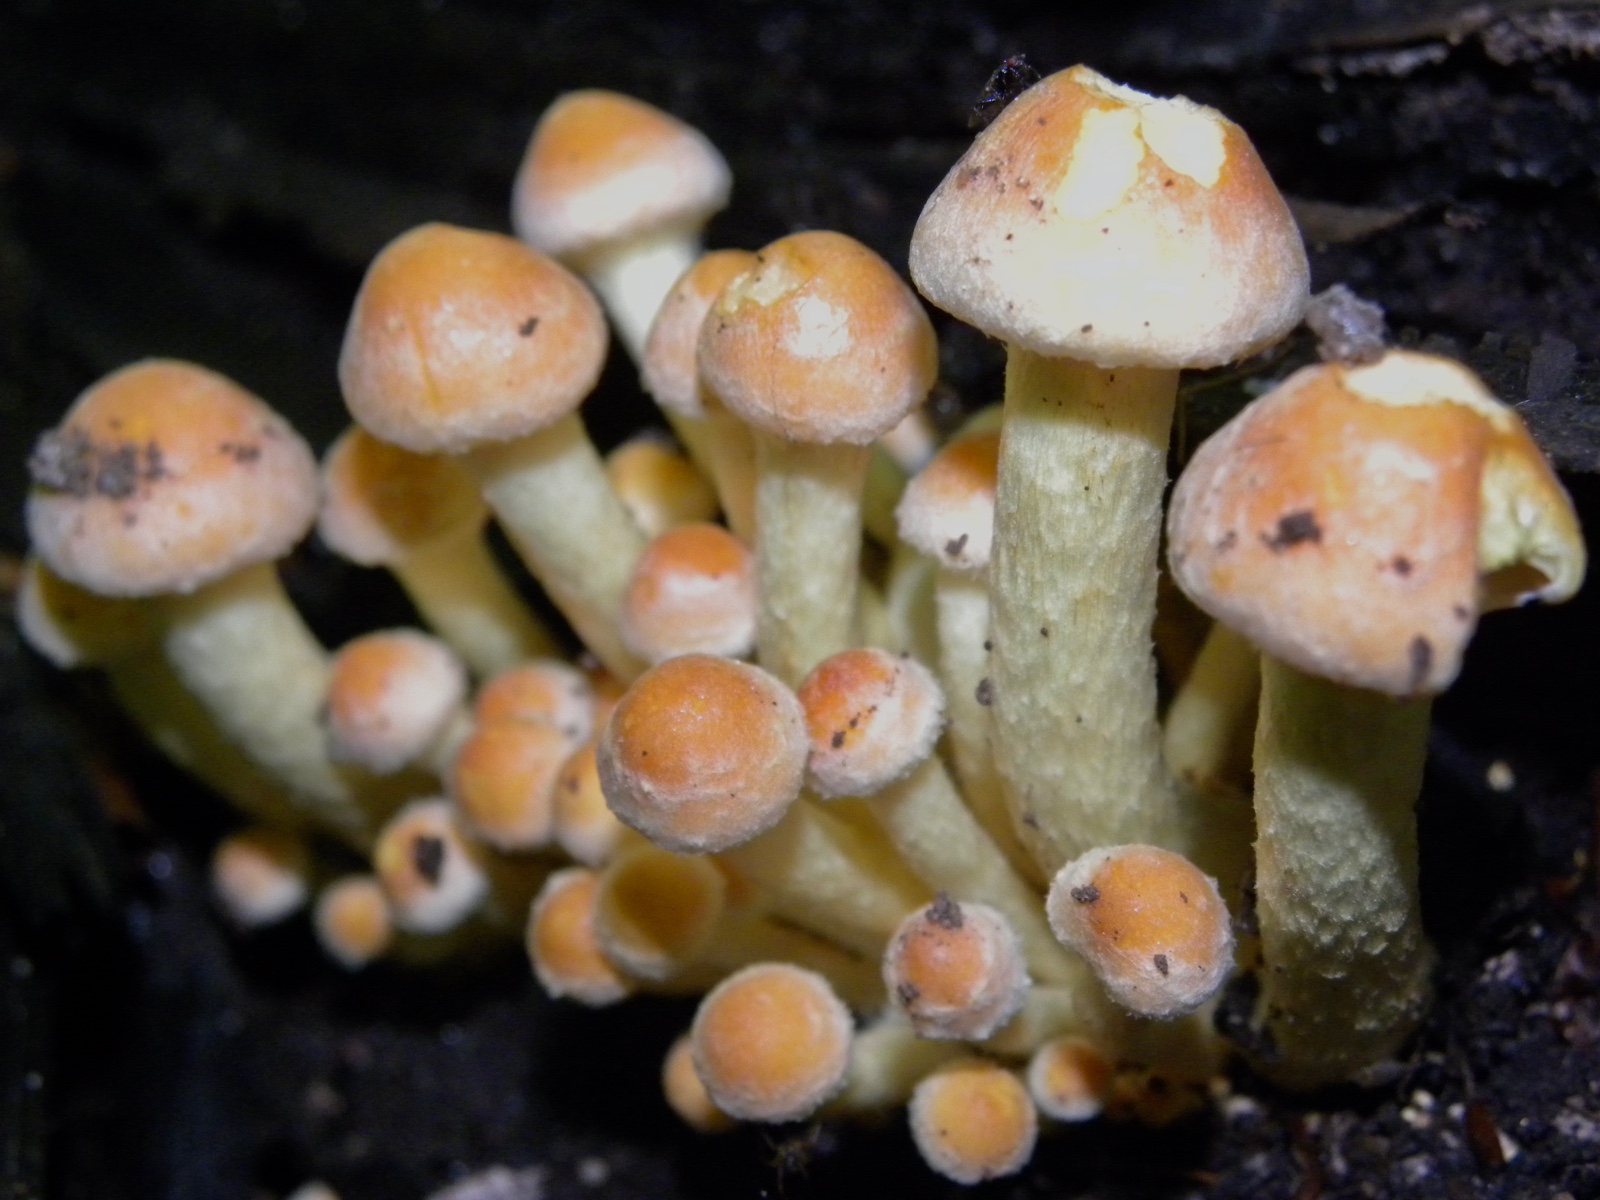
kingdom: Fungi
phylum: Basidiomycota
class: Agaricomycetes
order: Agaricales
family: Strophariaceae
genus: Hypholoma
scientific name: Hypholoma fasciculare
